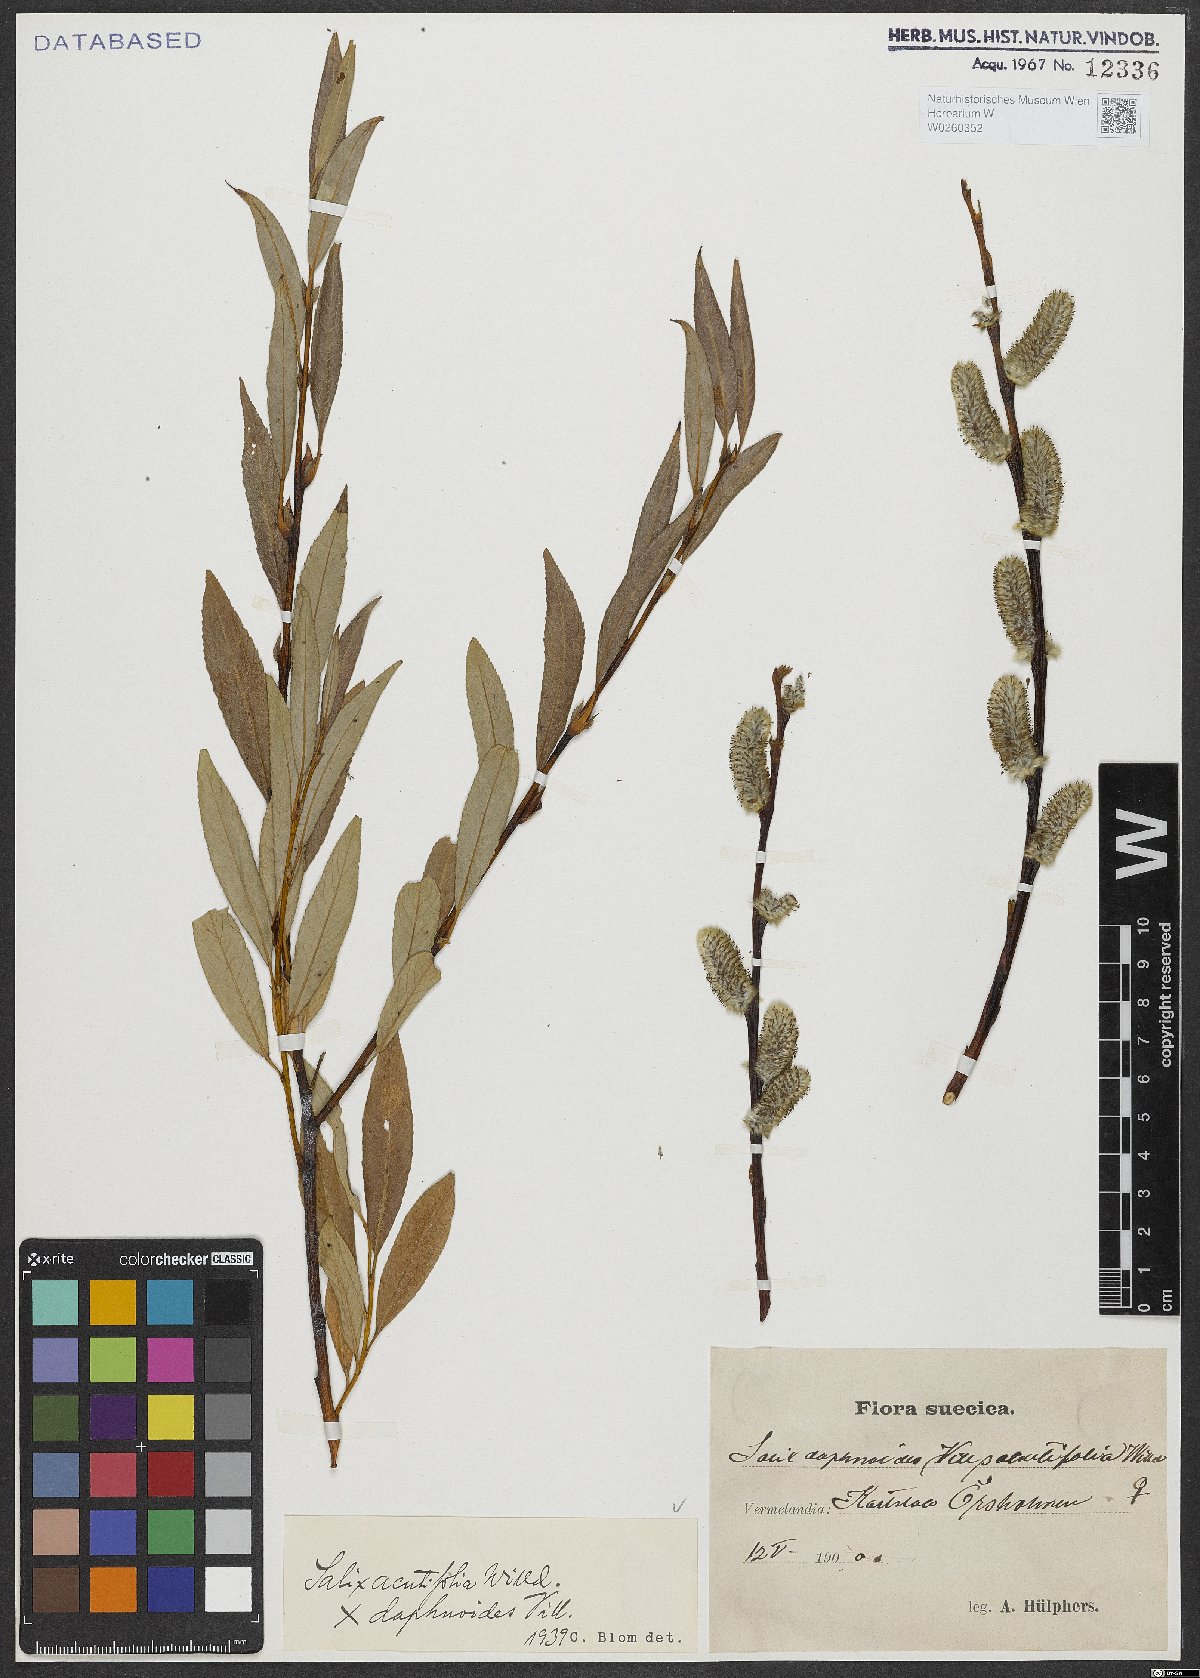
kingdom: Plantae
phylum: Tracheophyta
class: Magnoliopsida
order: Malpighiales
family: Salicaceae
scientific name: Salicaceae
